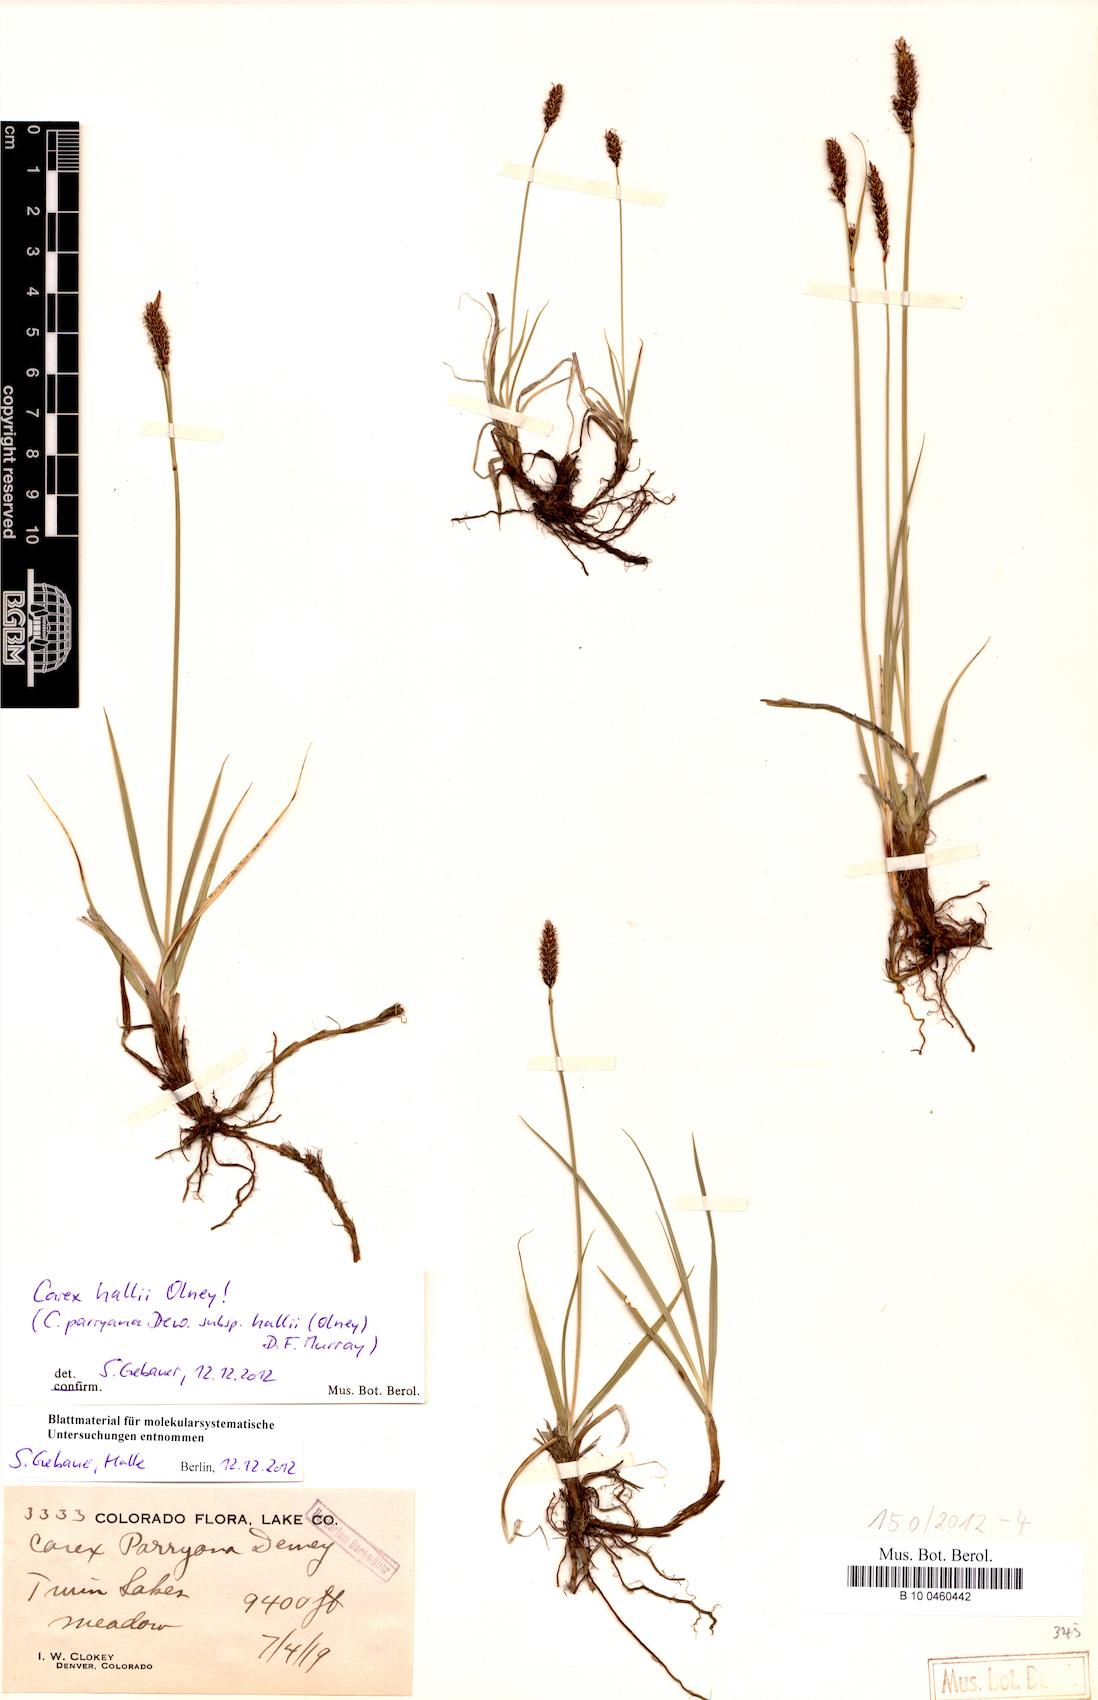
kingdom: Plantae
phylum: Tracheophyta
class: Liliopsida
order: Poales
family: Cyperaceae
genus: Carex
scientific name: Carex hallii
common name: Deer sedge
